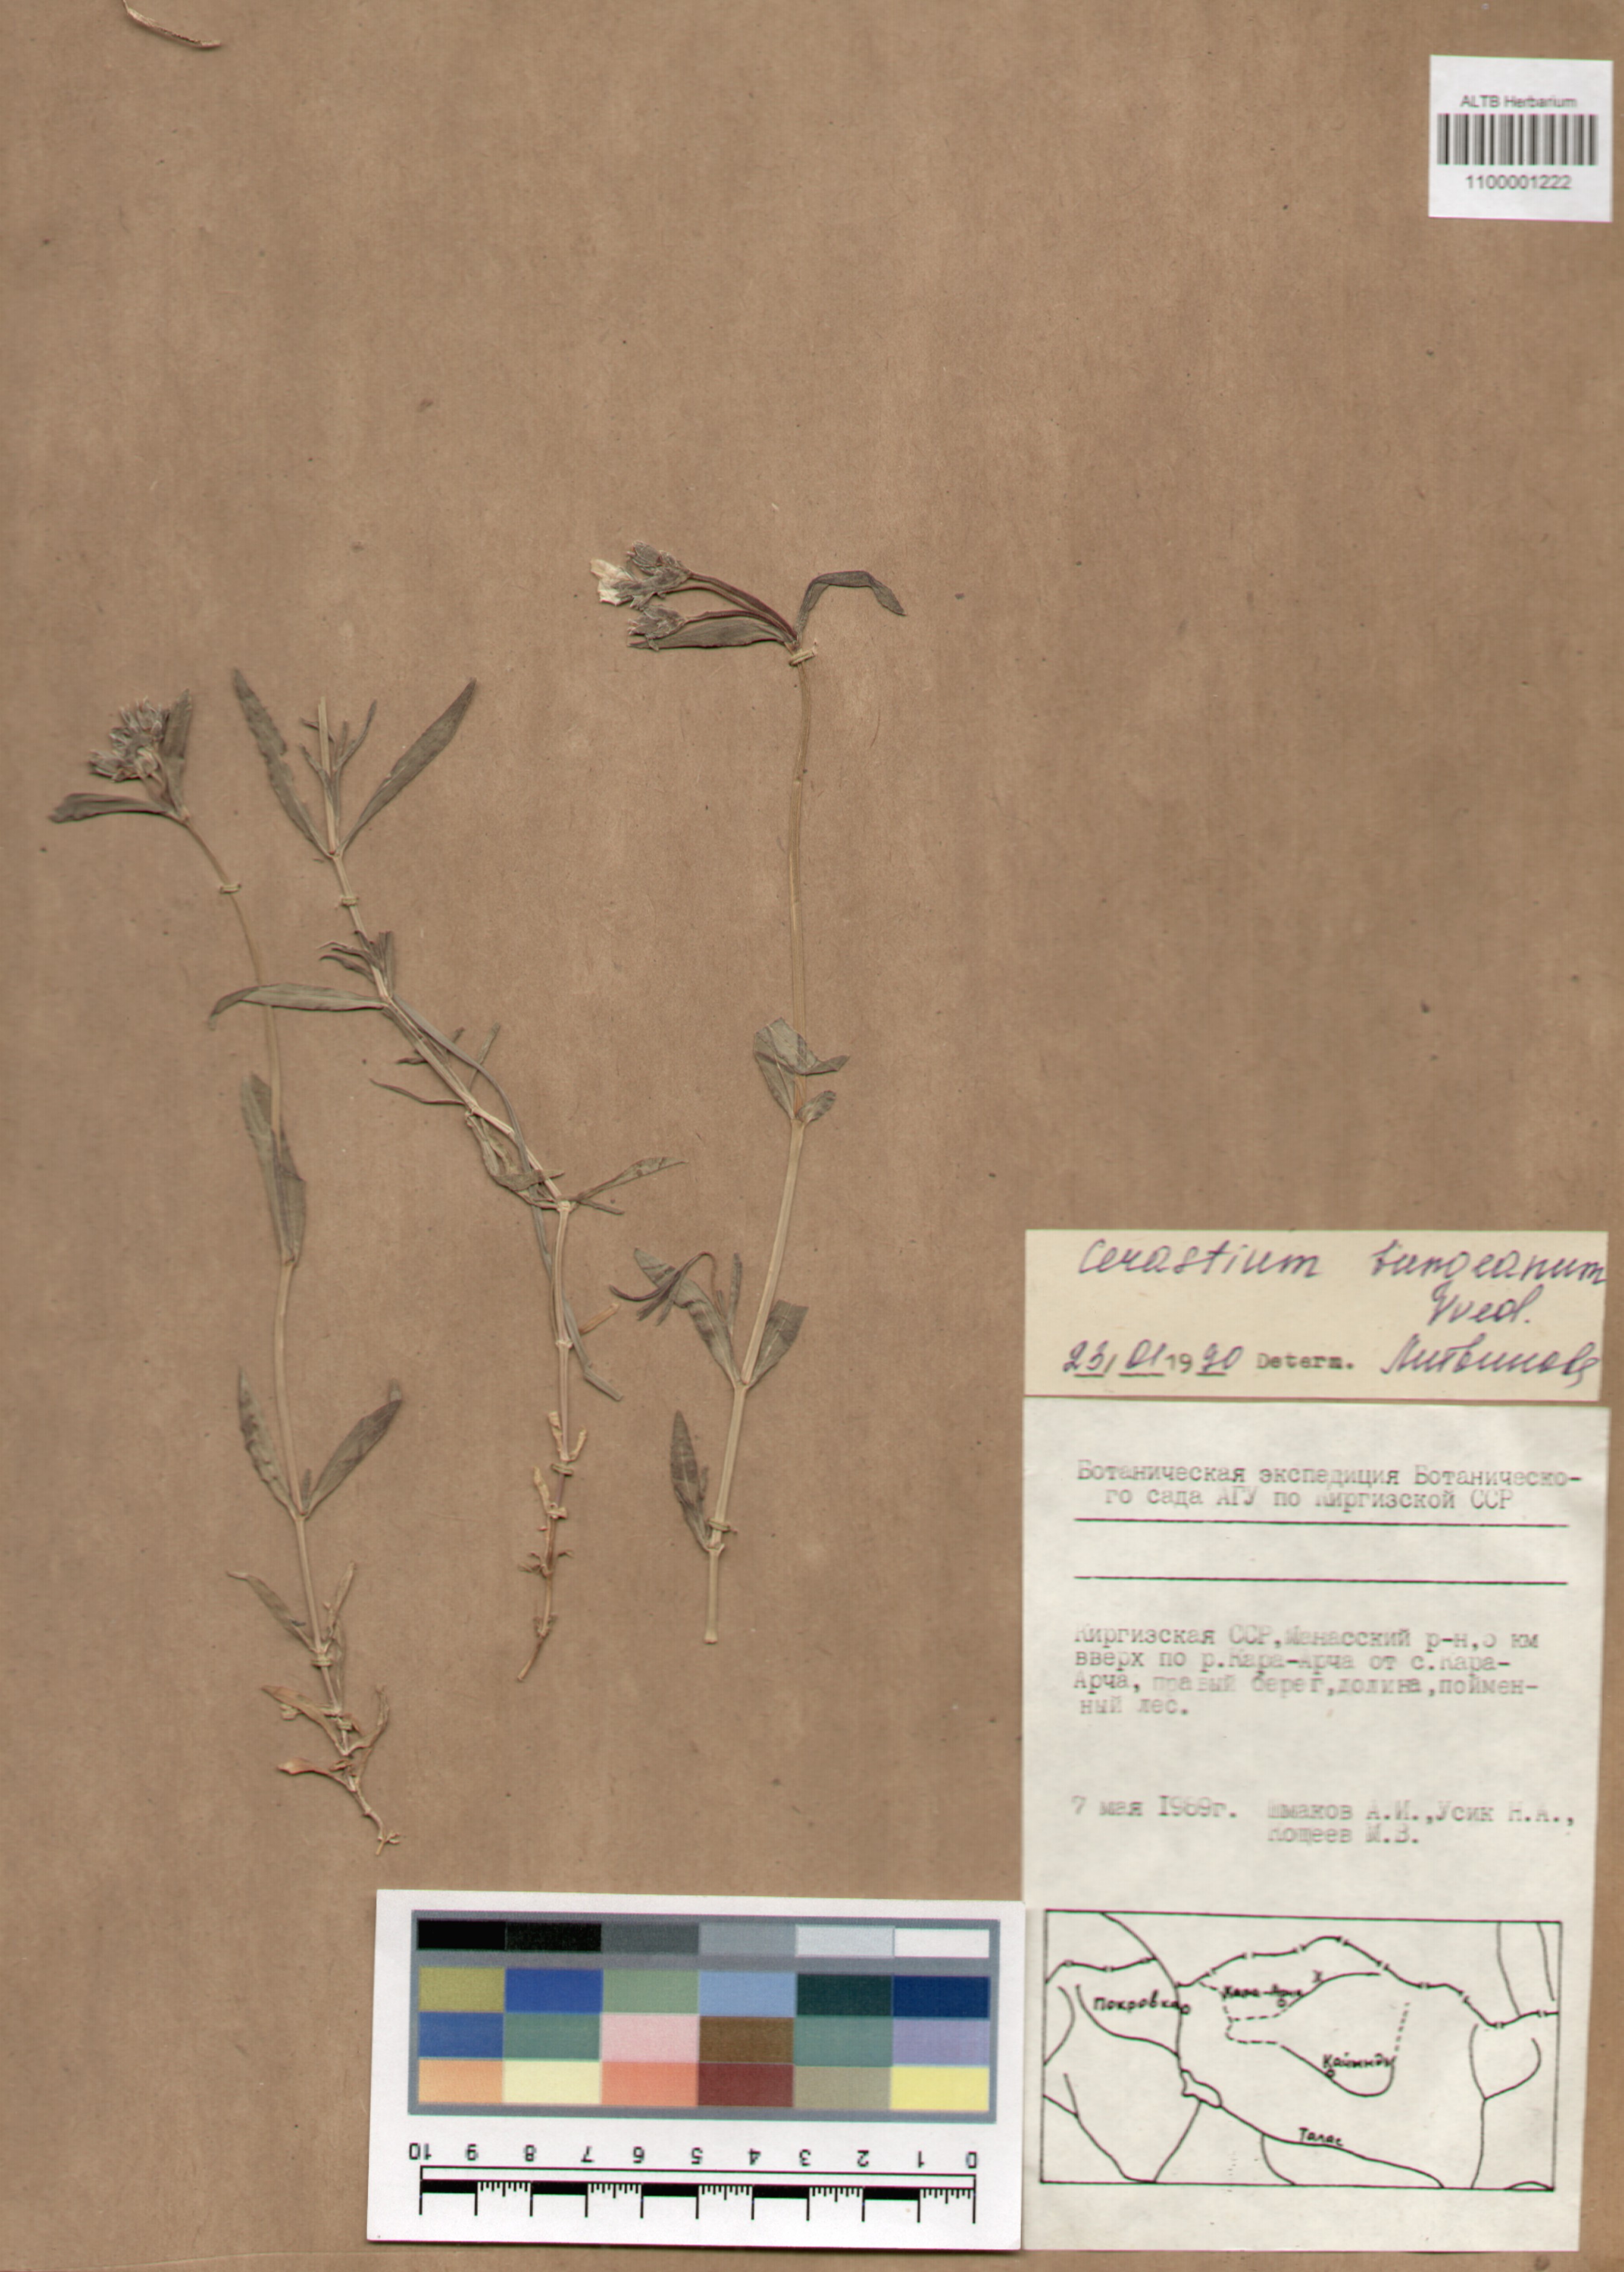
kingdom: Plantae
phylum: Tracheophyta
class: Magnoliopsida
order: Caryophyllales
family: Caryophyllaceae
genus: Dichodon
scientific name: Dichodon maximum
